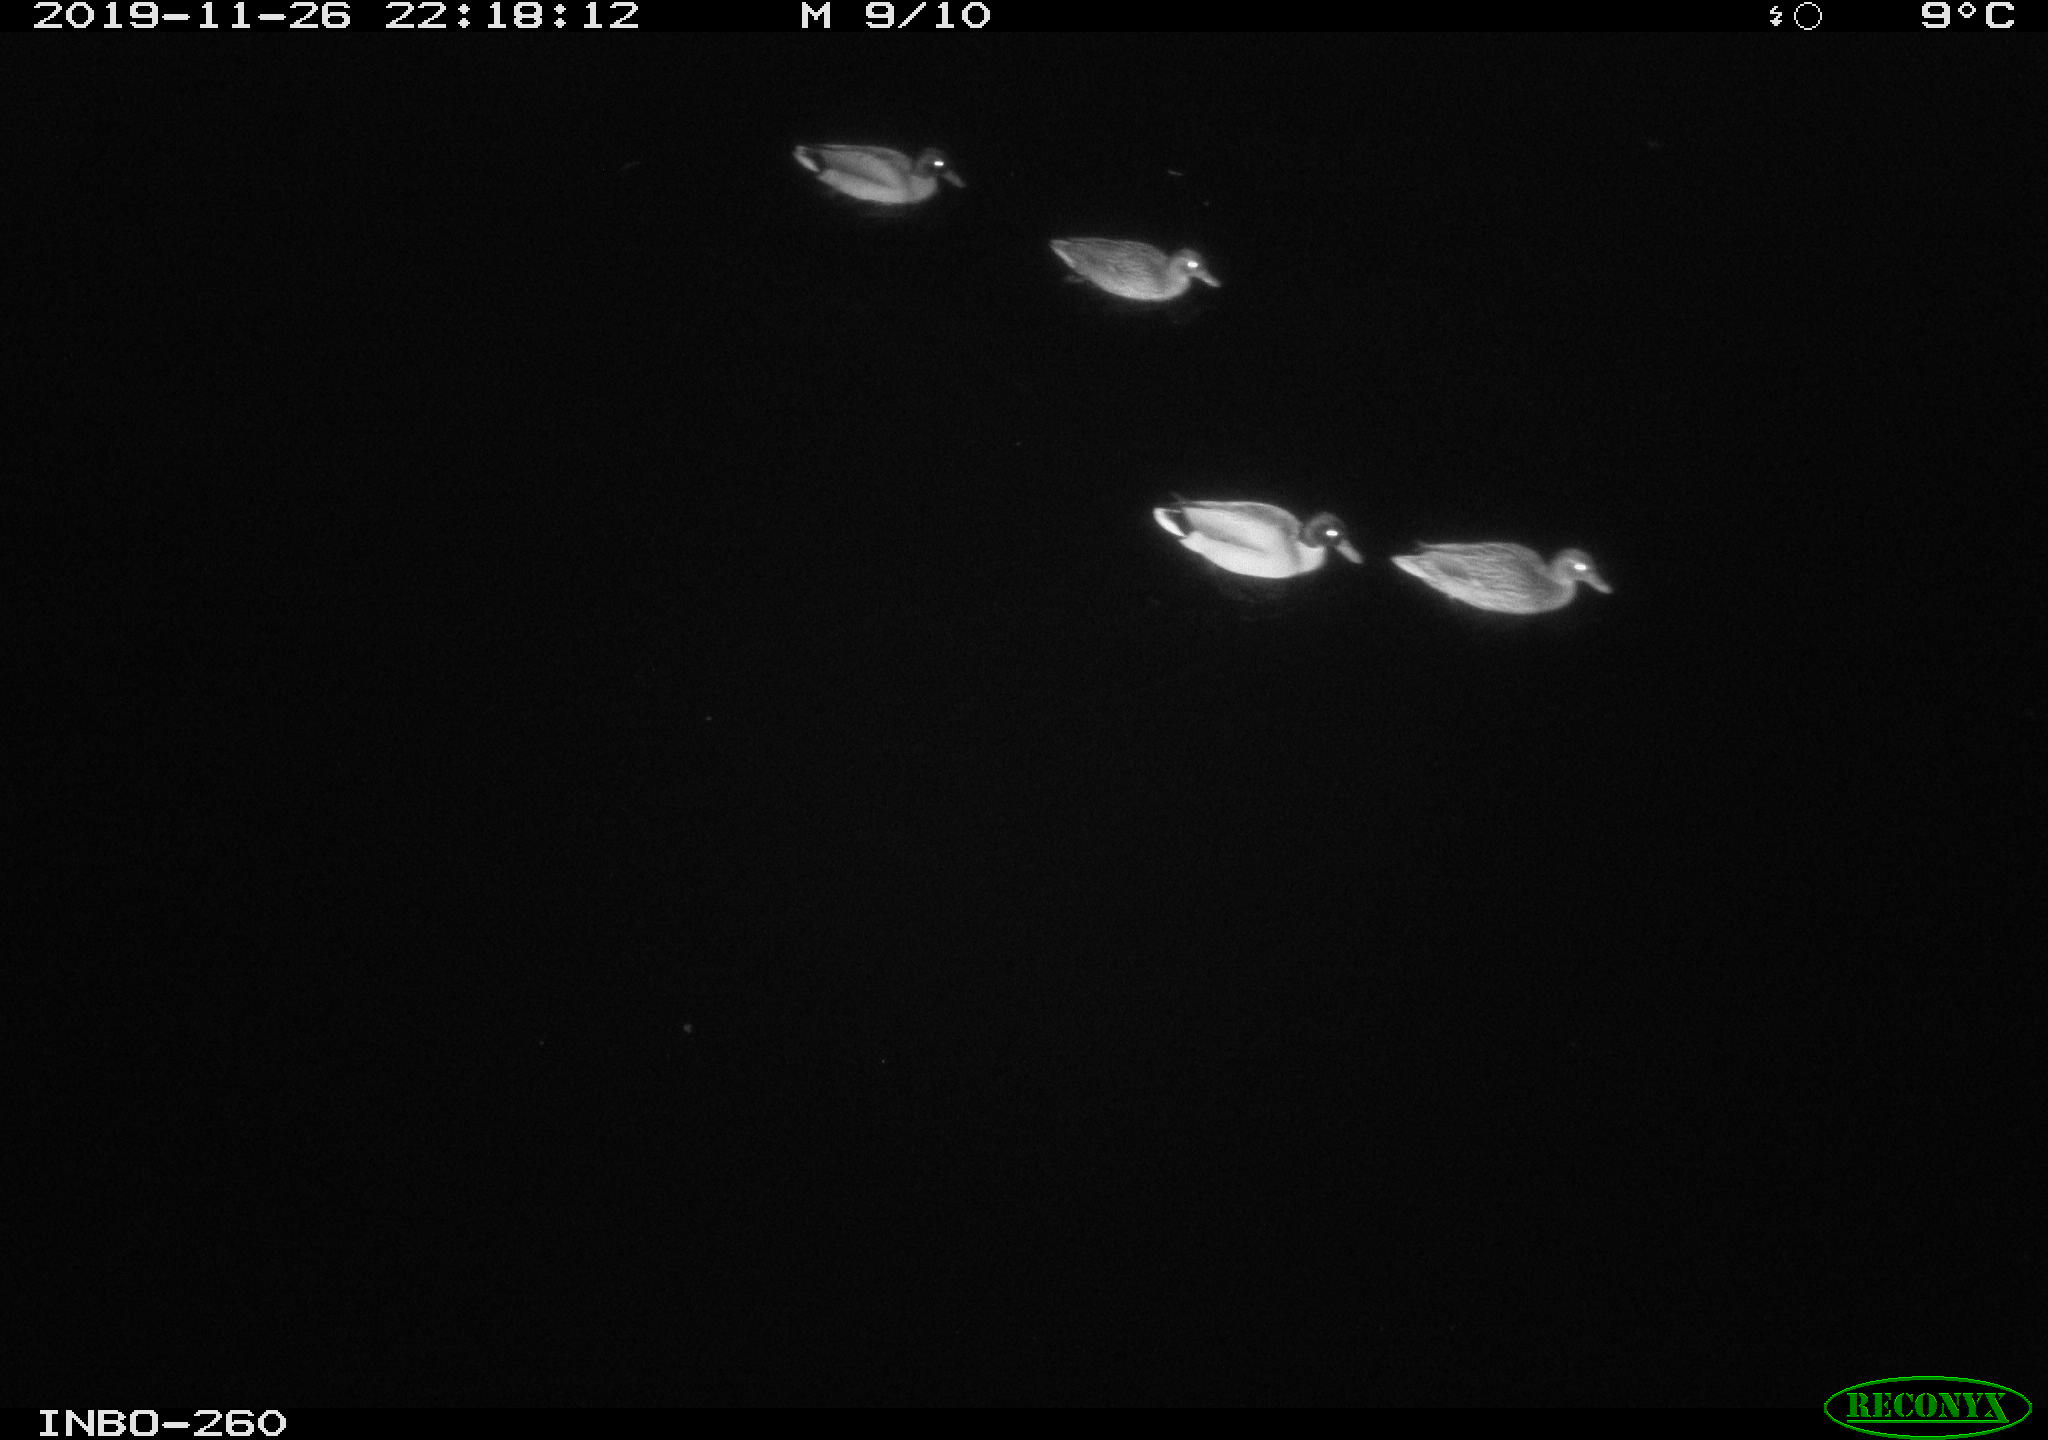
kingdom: Animalia
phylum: Chordata
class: Aves
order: Anseriformes
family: Anatidae
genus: Anas
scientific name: Anas platyrhynchos
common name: Mallard
